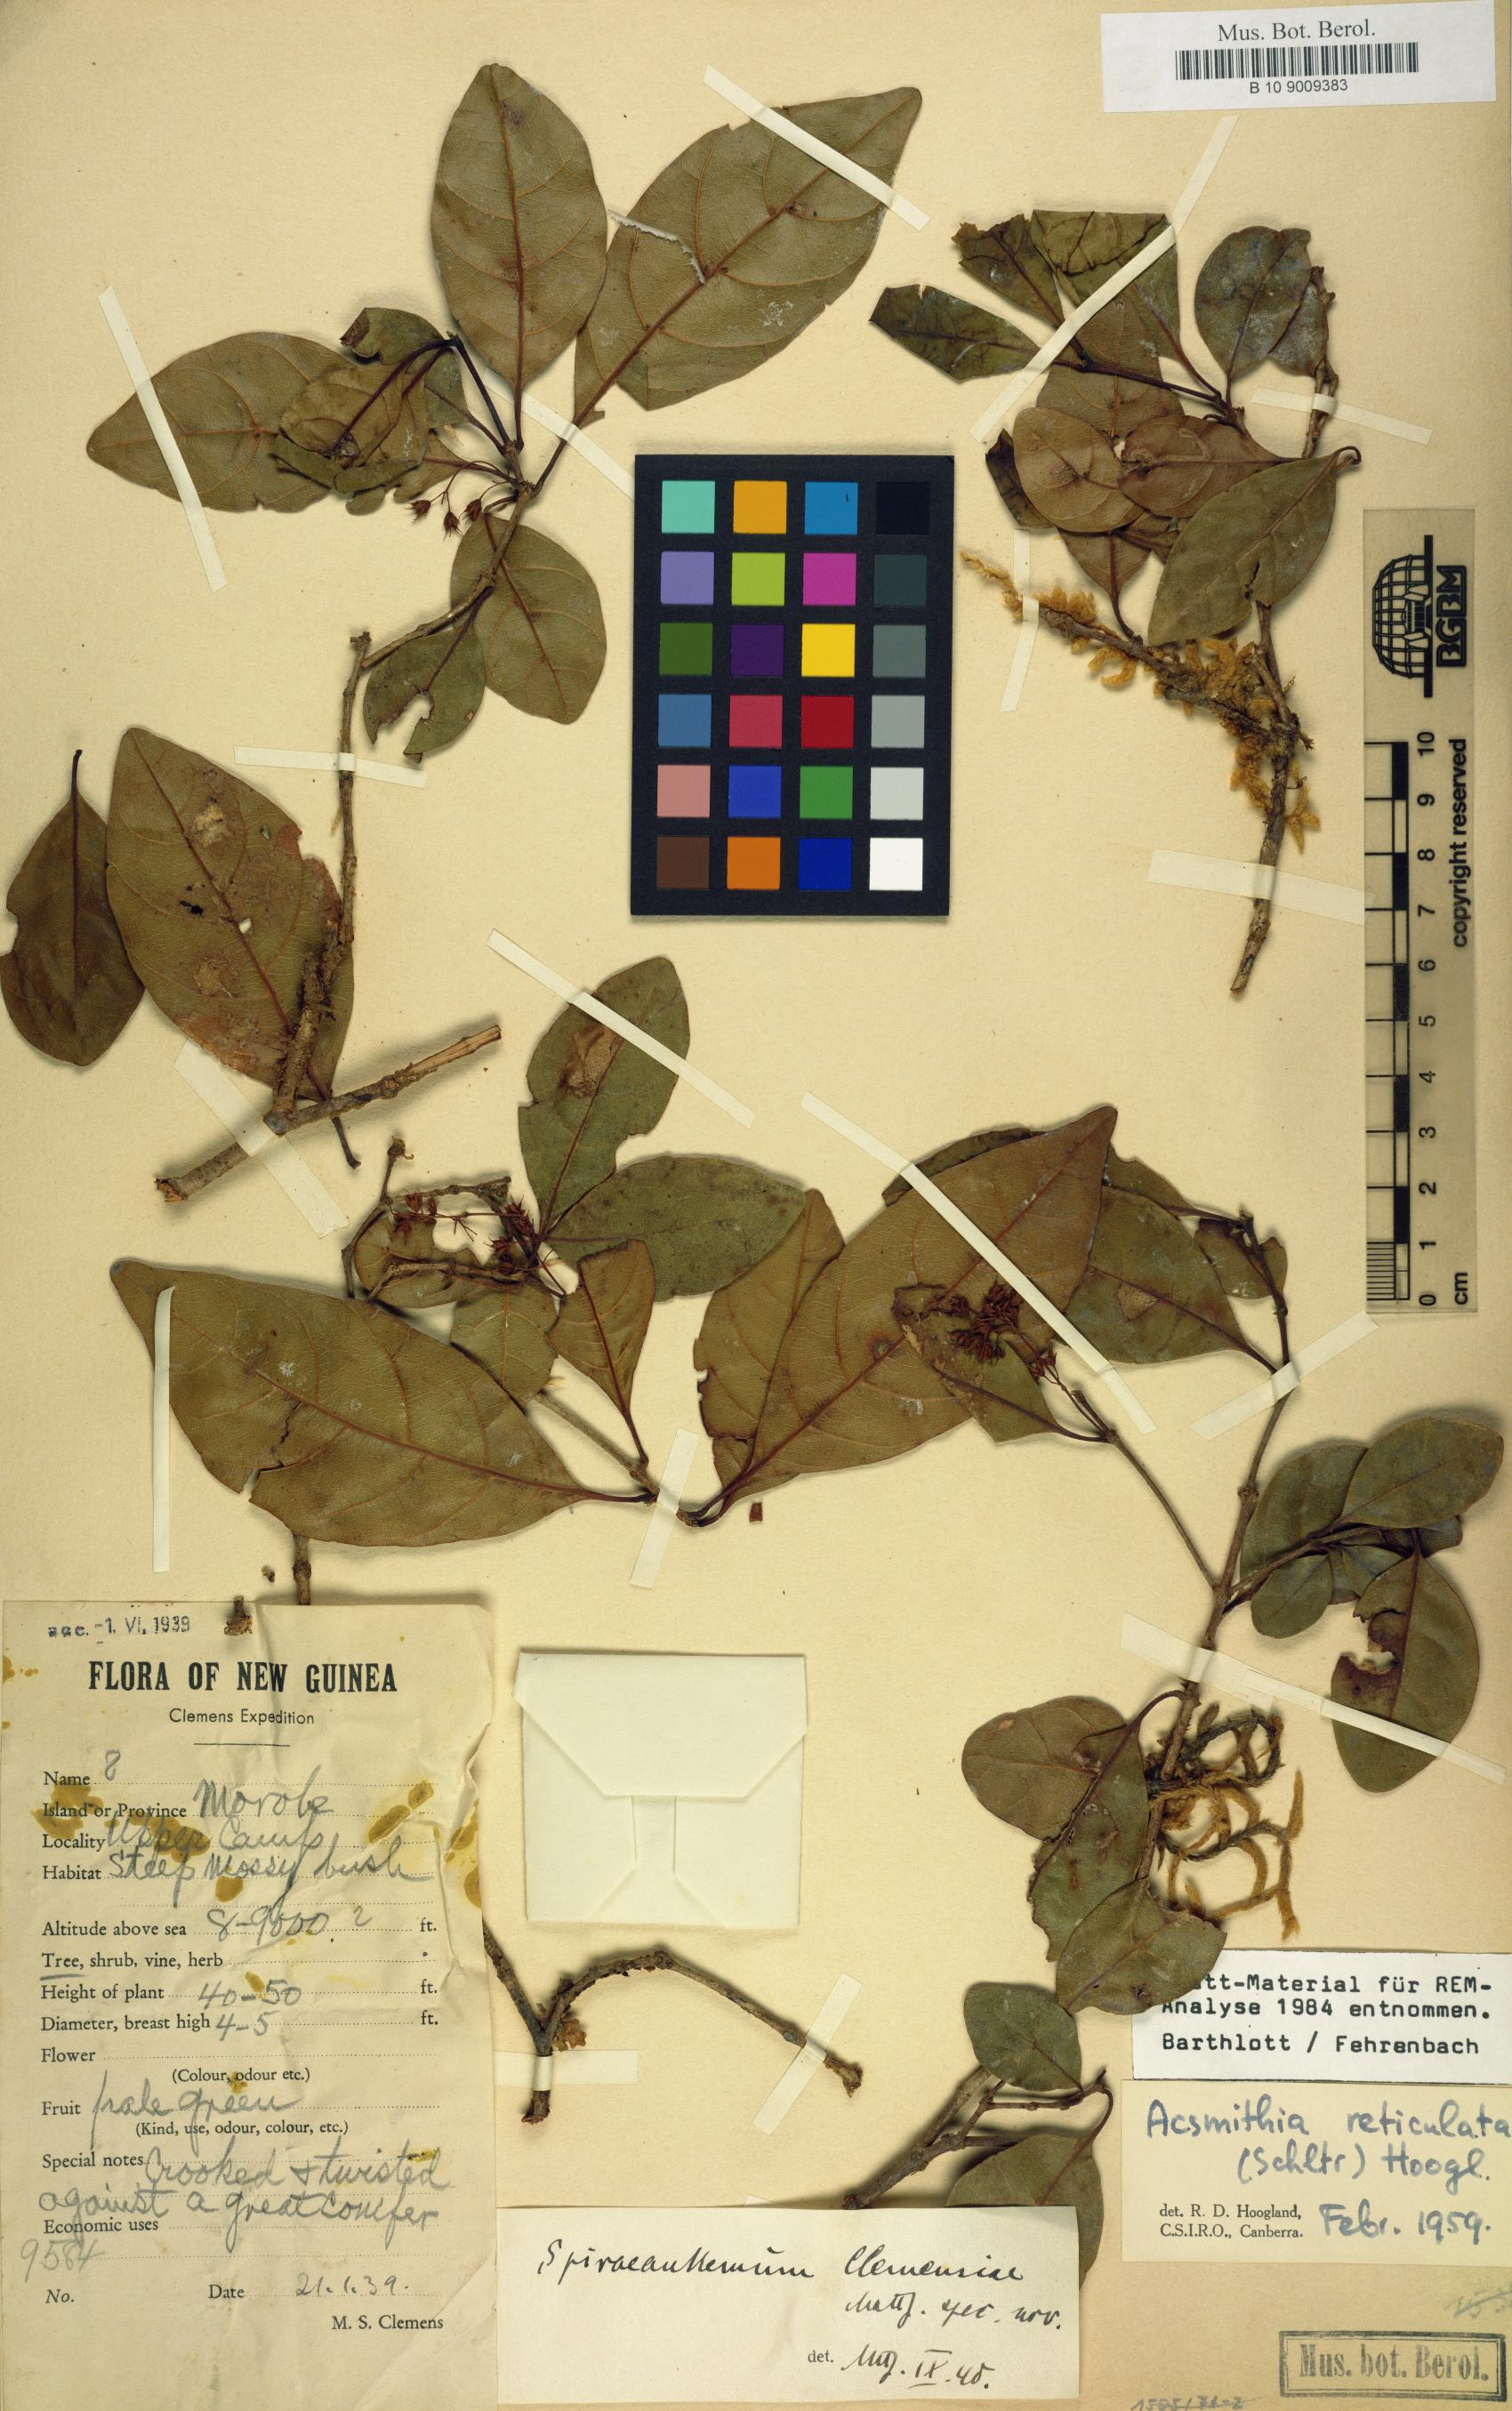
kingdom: Plantae
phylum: Tracheophyta
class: Magnoliopsida
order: Oxalidales
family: Cunoniaceae
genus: Spiraeanthemum
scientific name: Spiraeanthemum reticulatum
